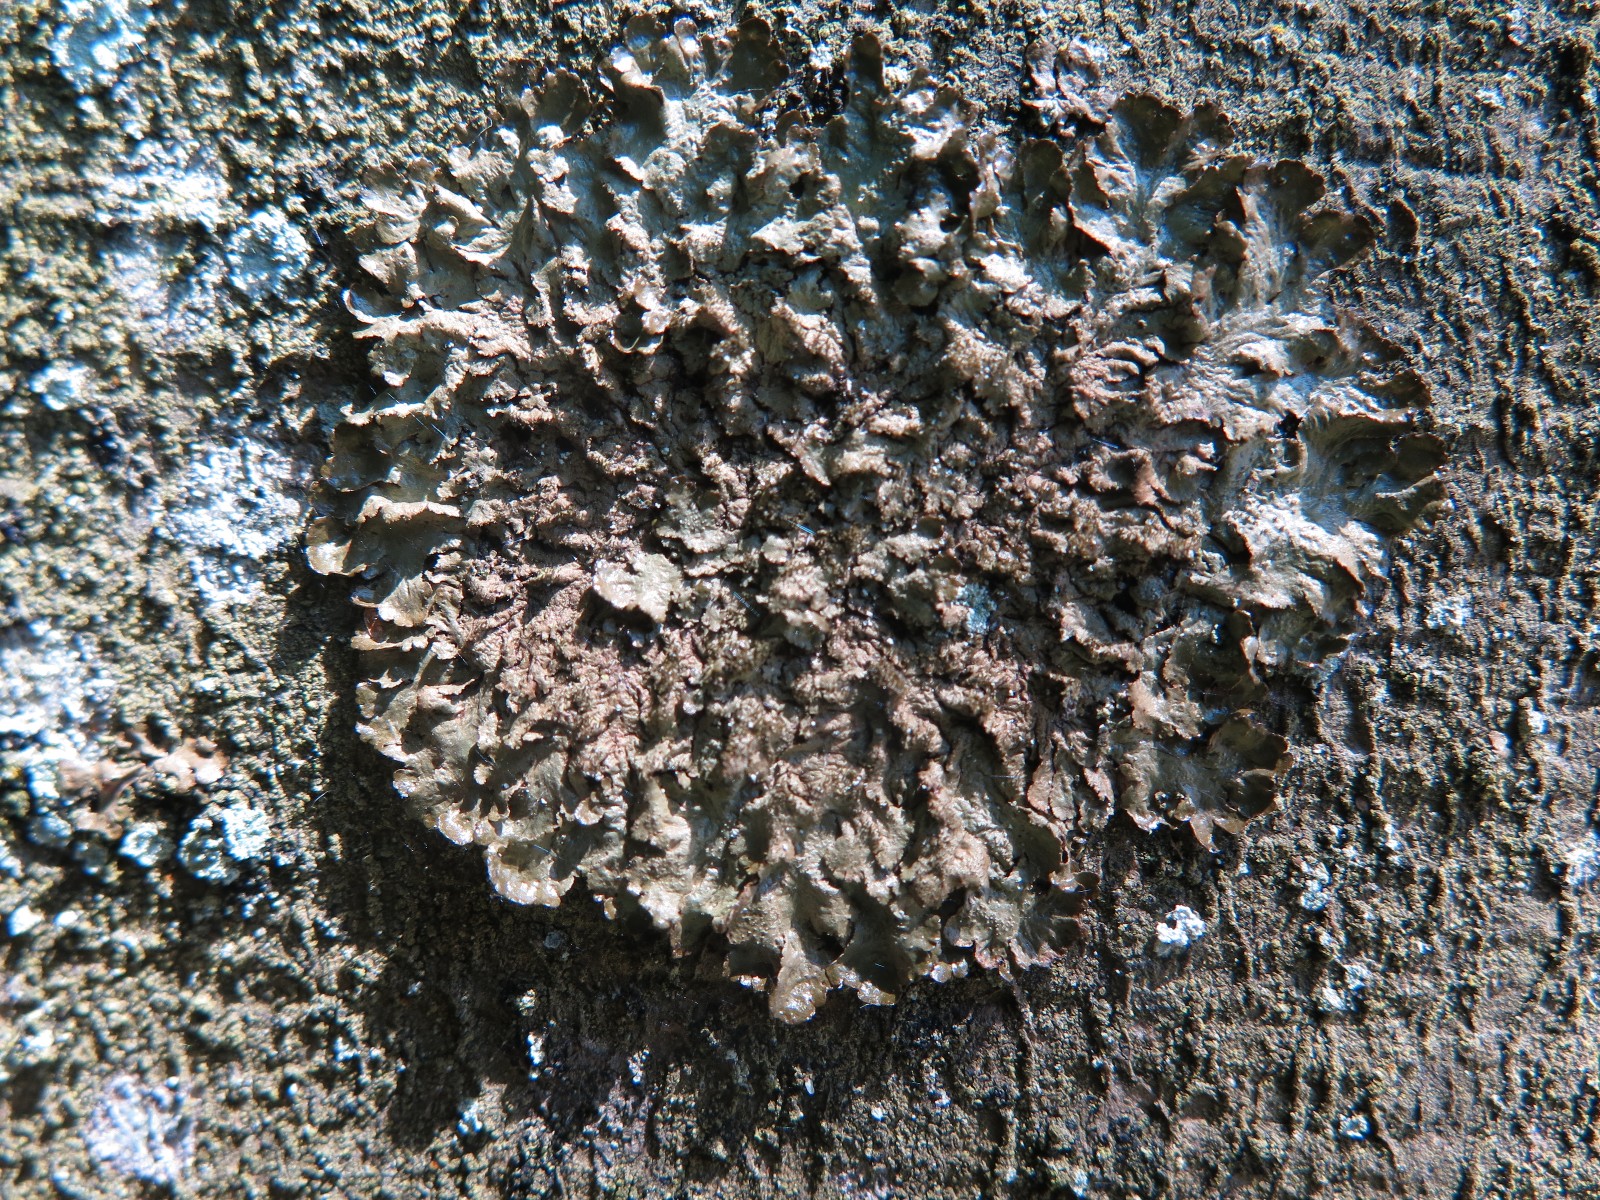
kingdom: Fungi
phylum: Ascomycota
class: Lecanoromycetes
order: Lecanorales
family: Parmeliaceae
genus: Melanelixia
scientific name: Melanelixia subaurifera
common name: guldpudret skållav
